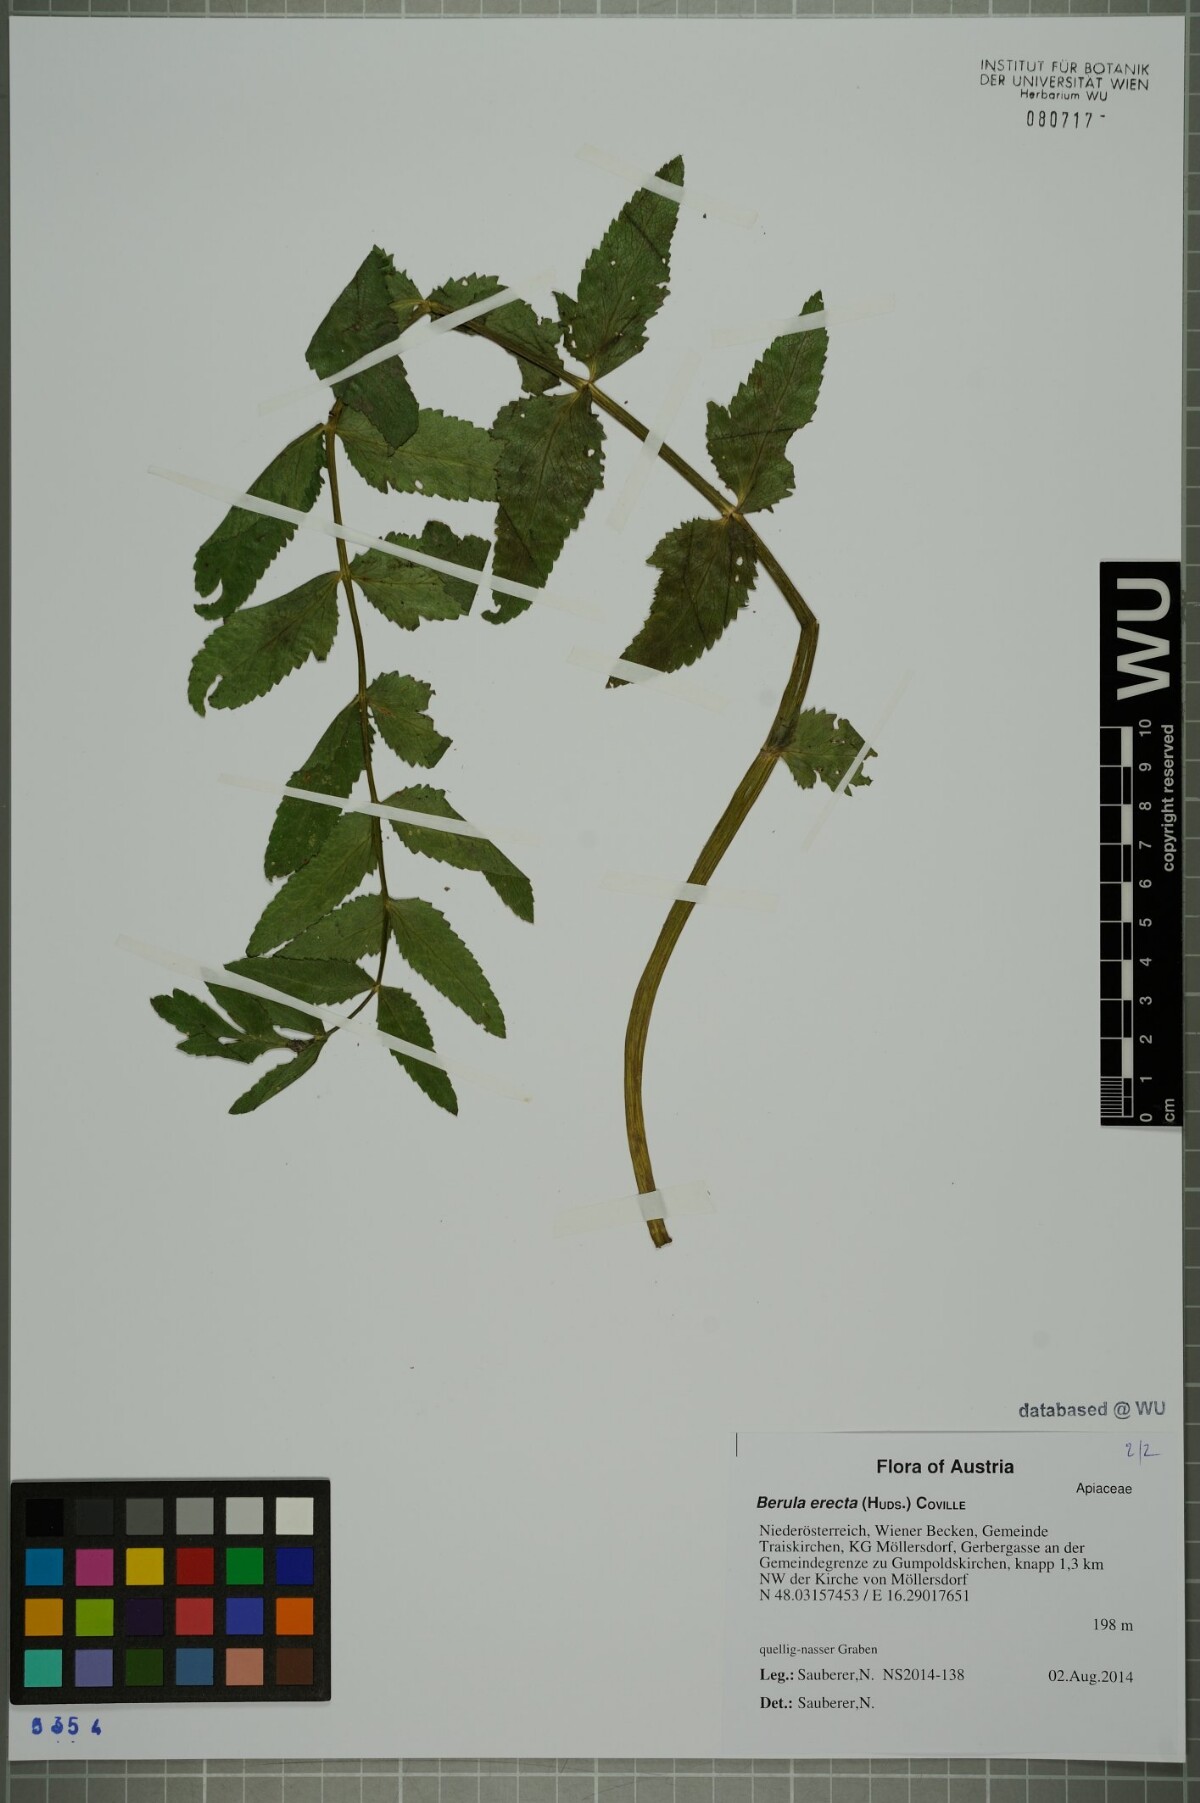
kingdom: Plantae
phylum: Tracheophyta
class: Magnoliopsida
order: Apiales
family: Apiaceae
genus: Berula
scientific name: Berula erecta
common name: Lesser water-parsnip
